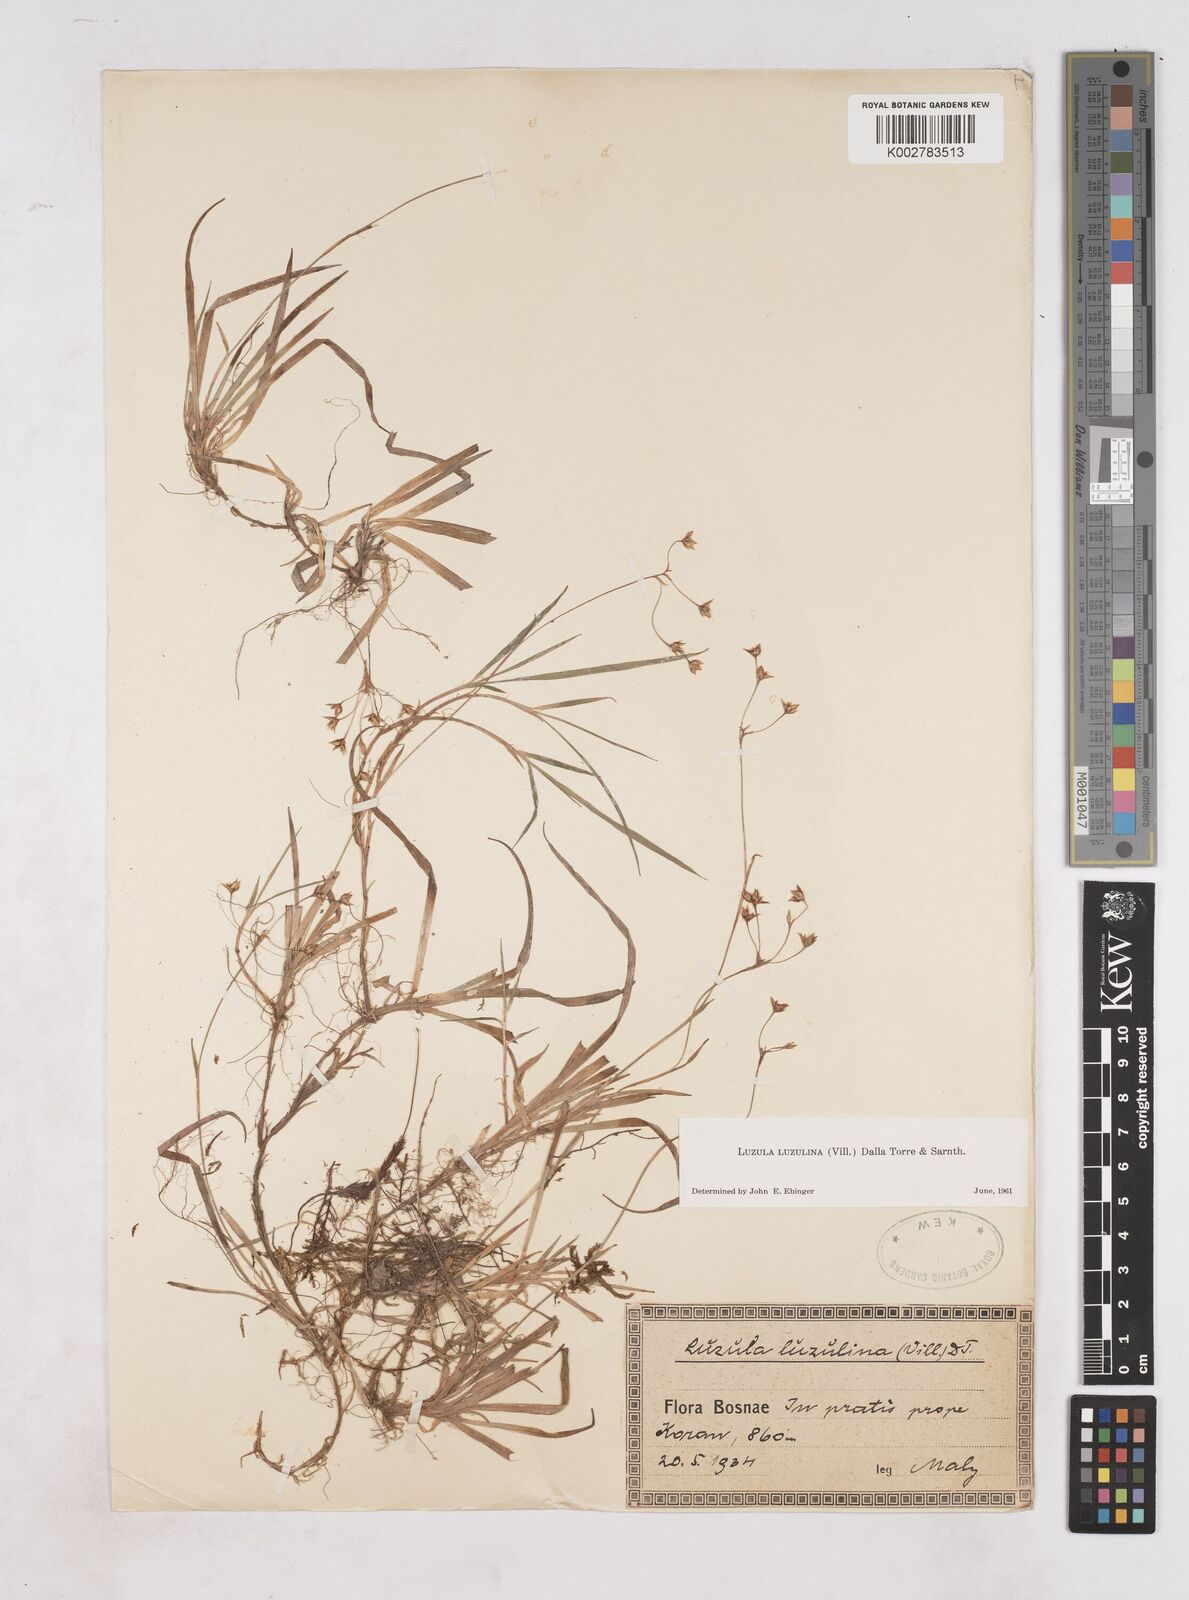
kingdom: Plantae
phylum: Tracheophyta
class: Liliopsida
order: Poales
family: Juncaceae
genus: Luzula
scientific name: Luzula luzulina
